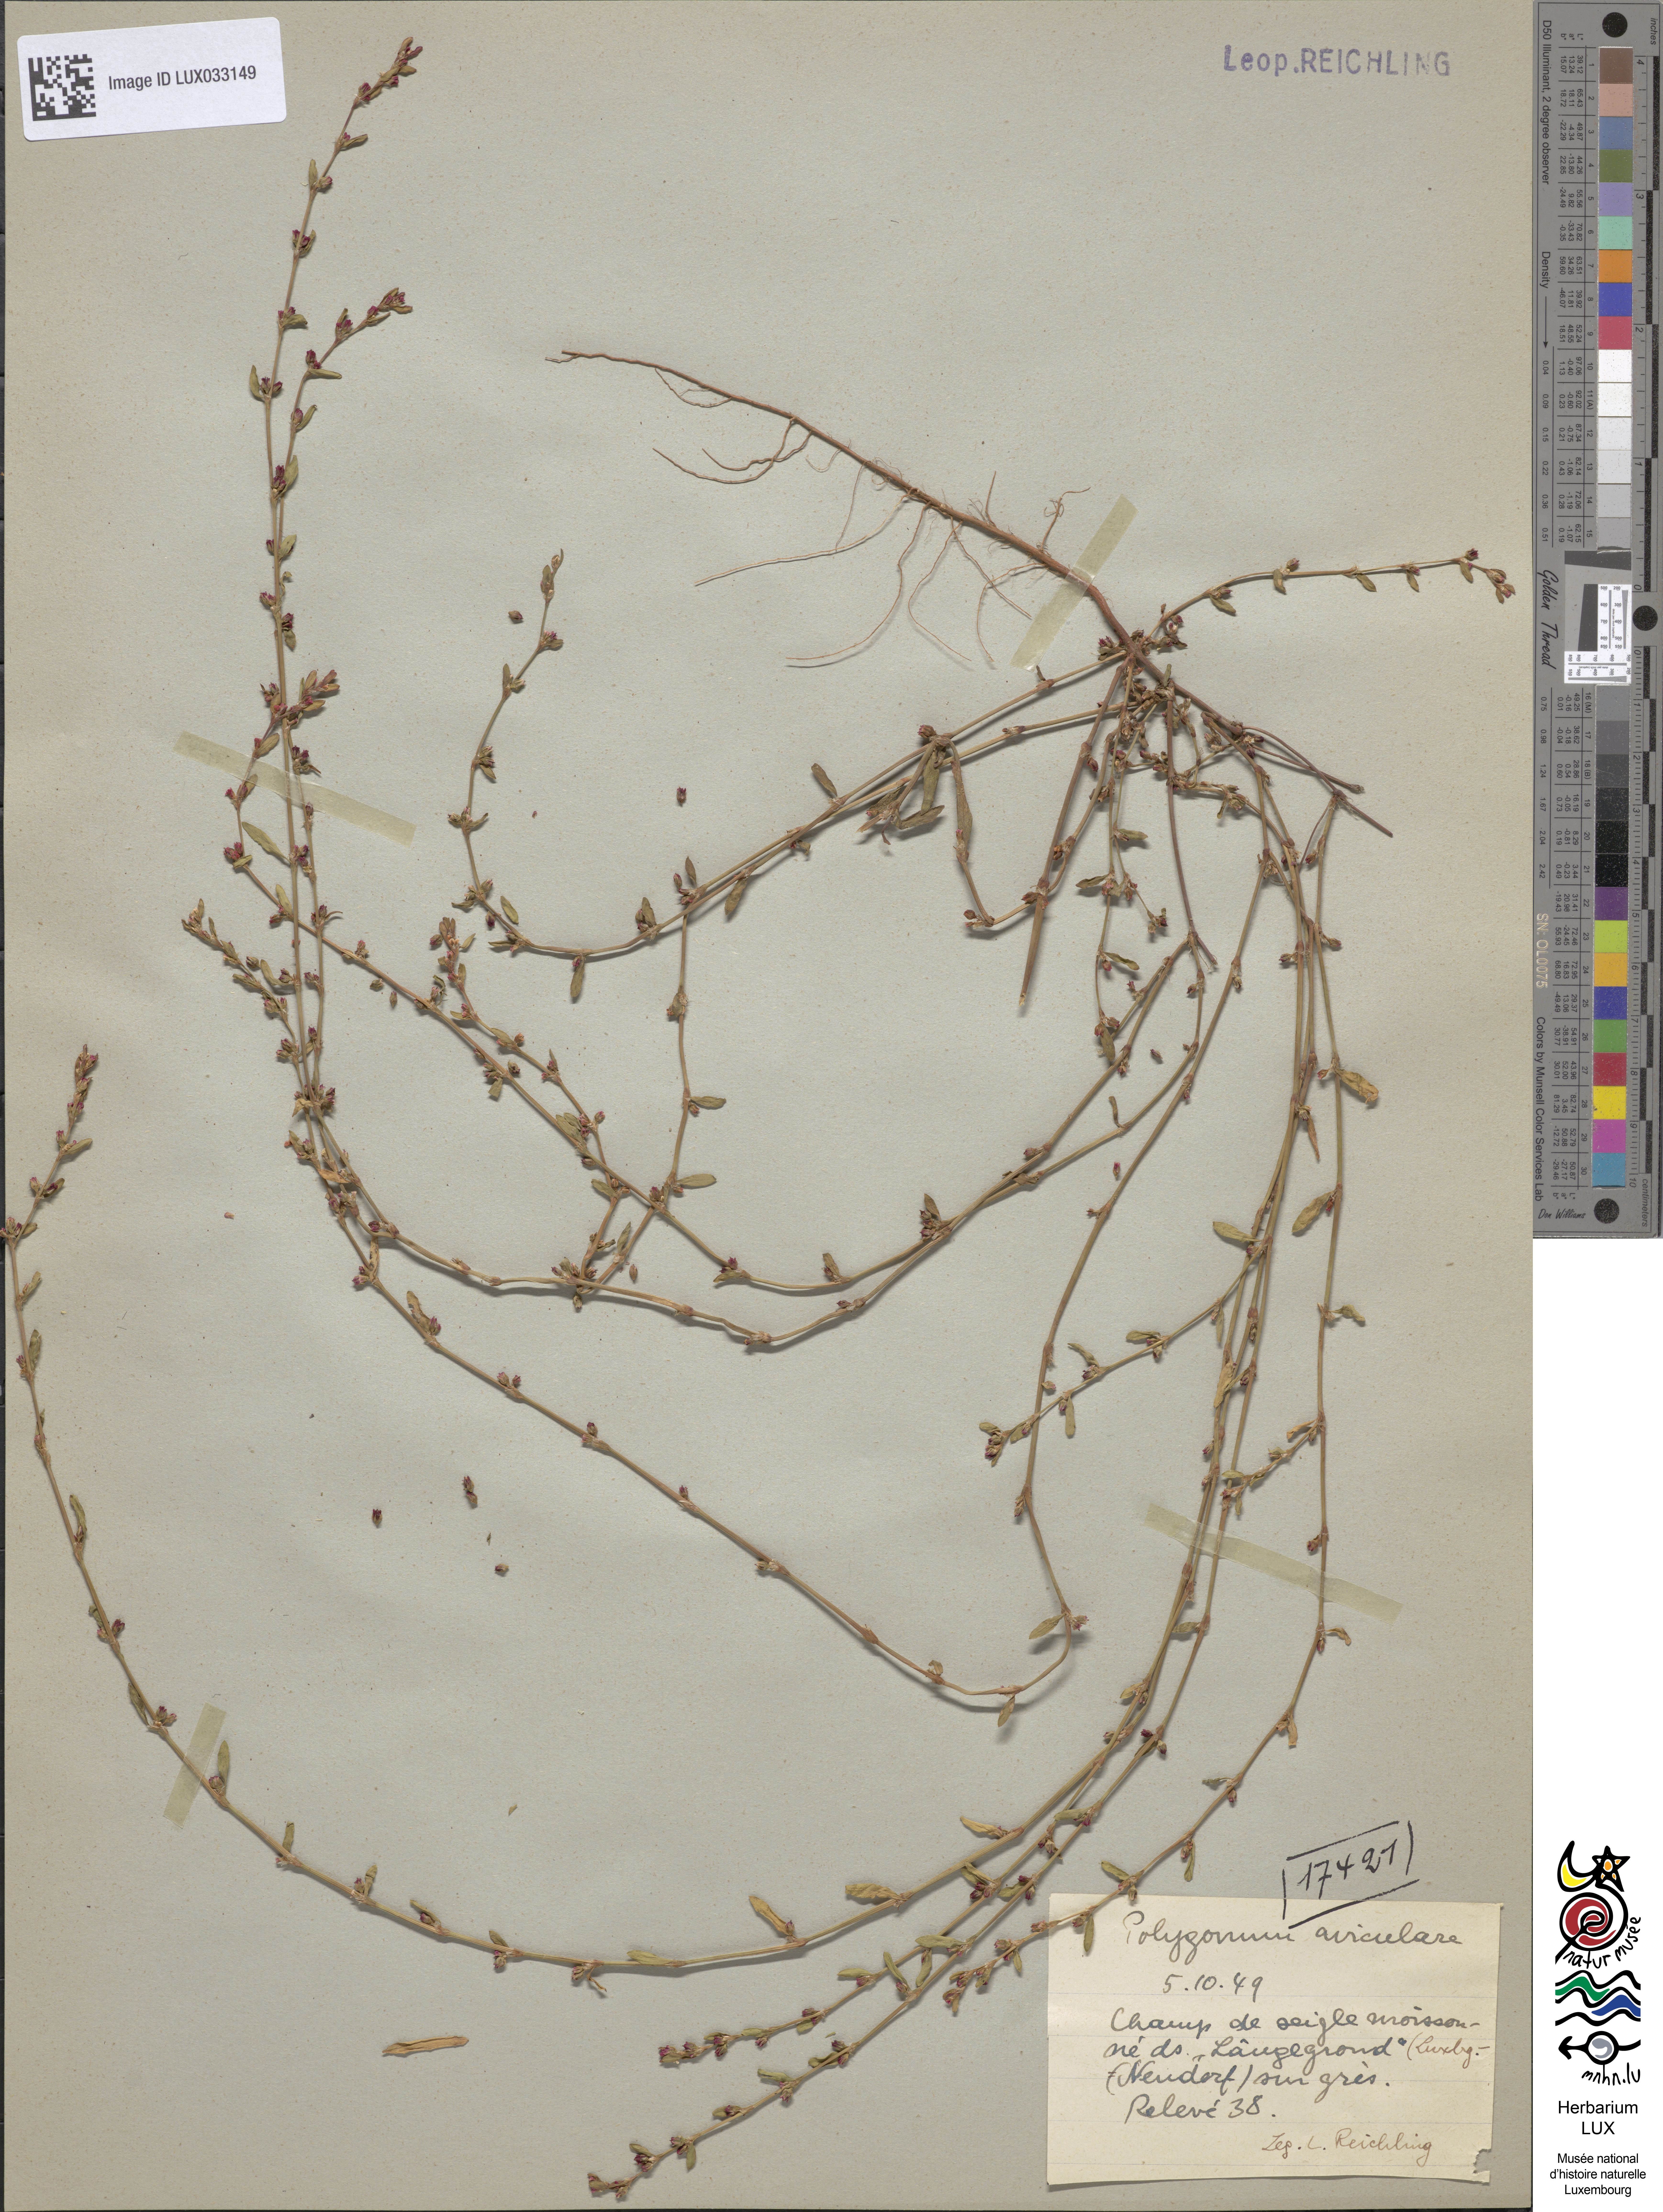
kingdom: Plantae
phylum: Tracheophyta
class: Magnoliopsida
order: Caryophyllales
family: Polygonaceae
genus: Polygonum
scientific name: Polygonum aviculare
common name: Prostrate knotweed
